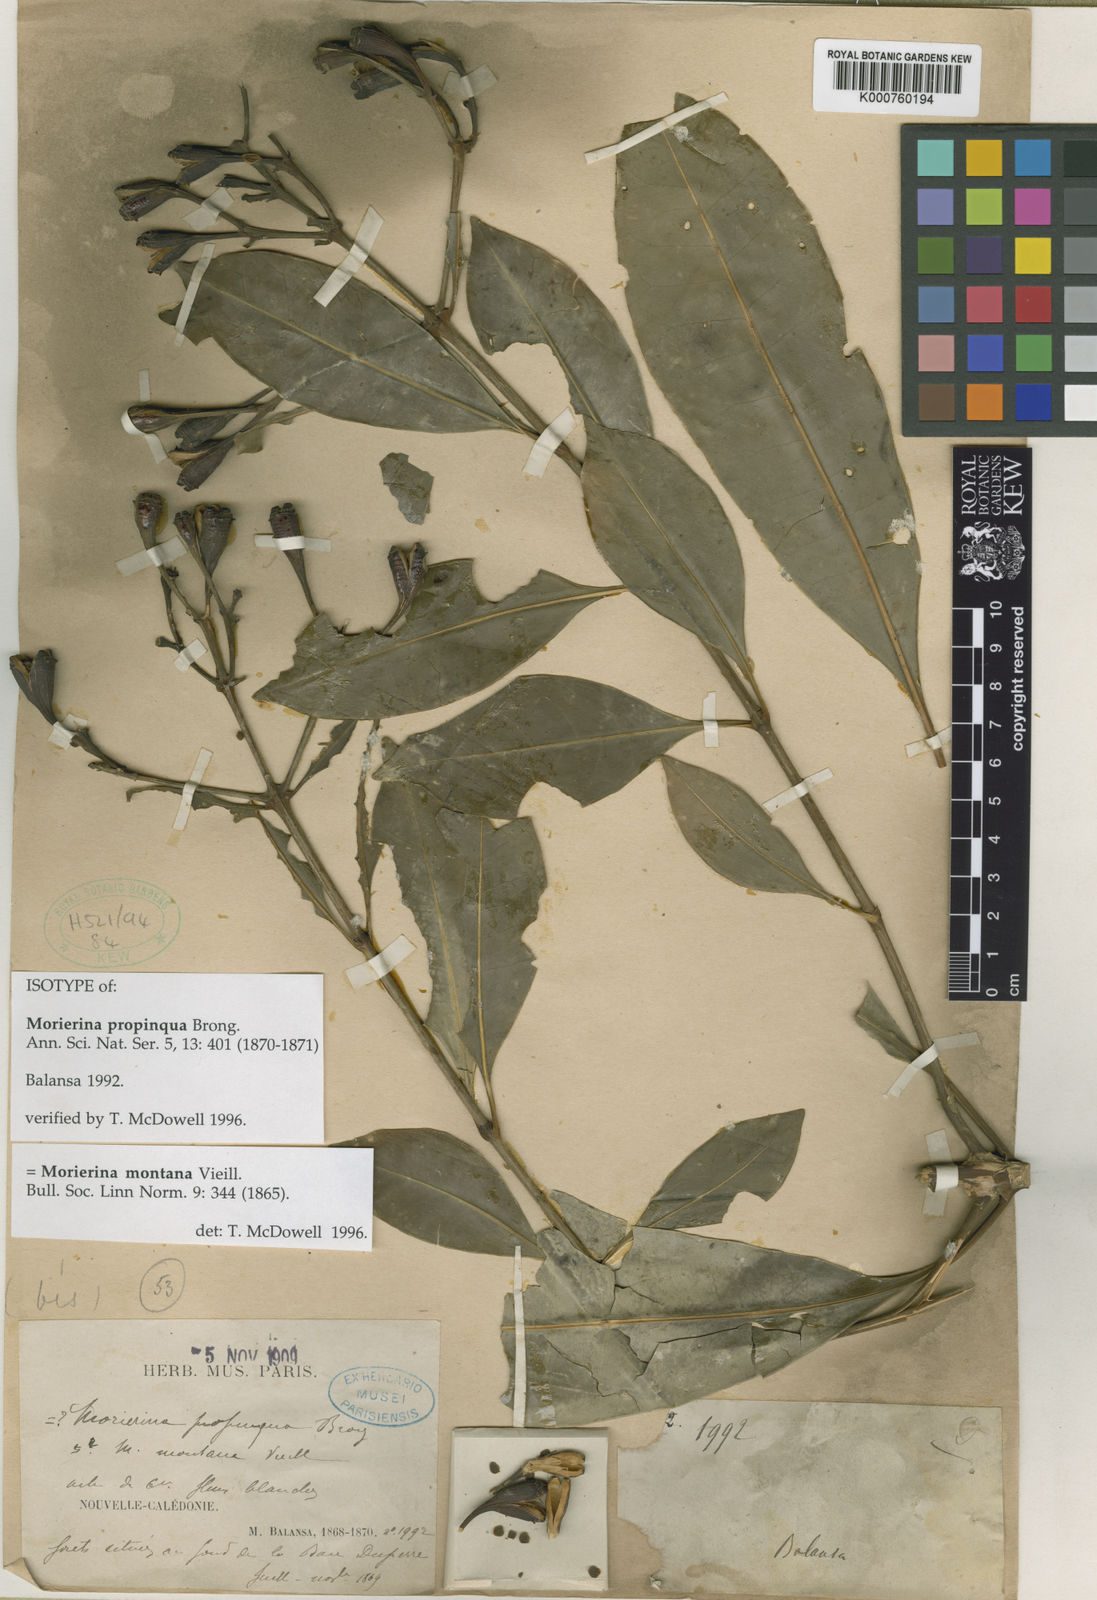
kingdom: Plantae
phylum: Tracheophyta
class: Magnoliopsida
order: Gentianales
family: Rubiaceae
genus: Thiollierea
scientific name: Thiollierea propinqua
